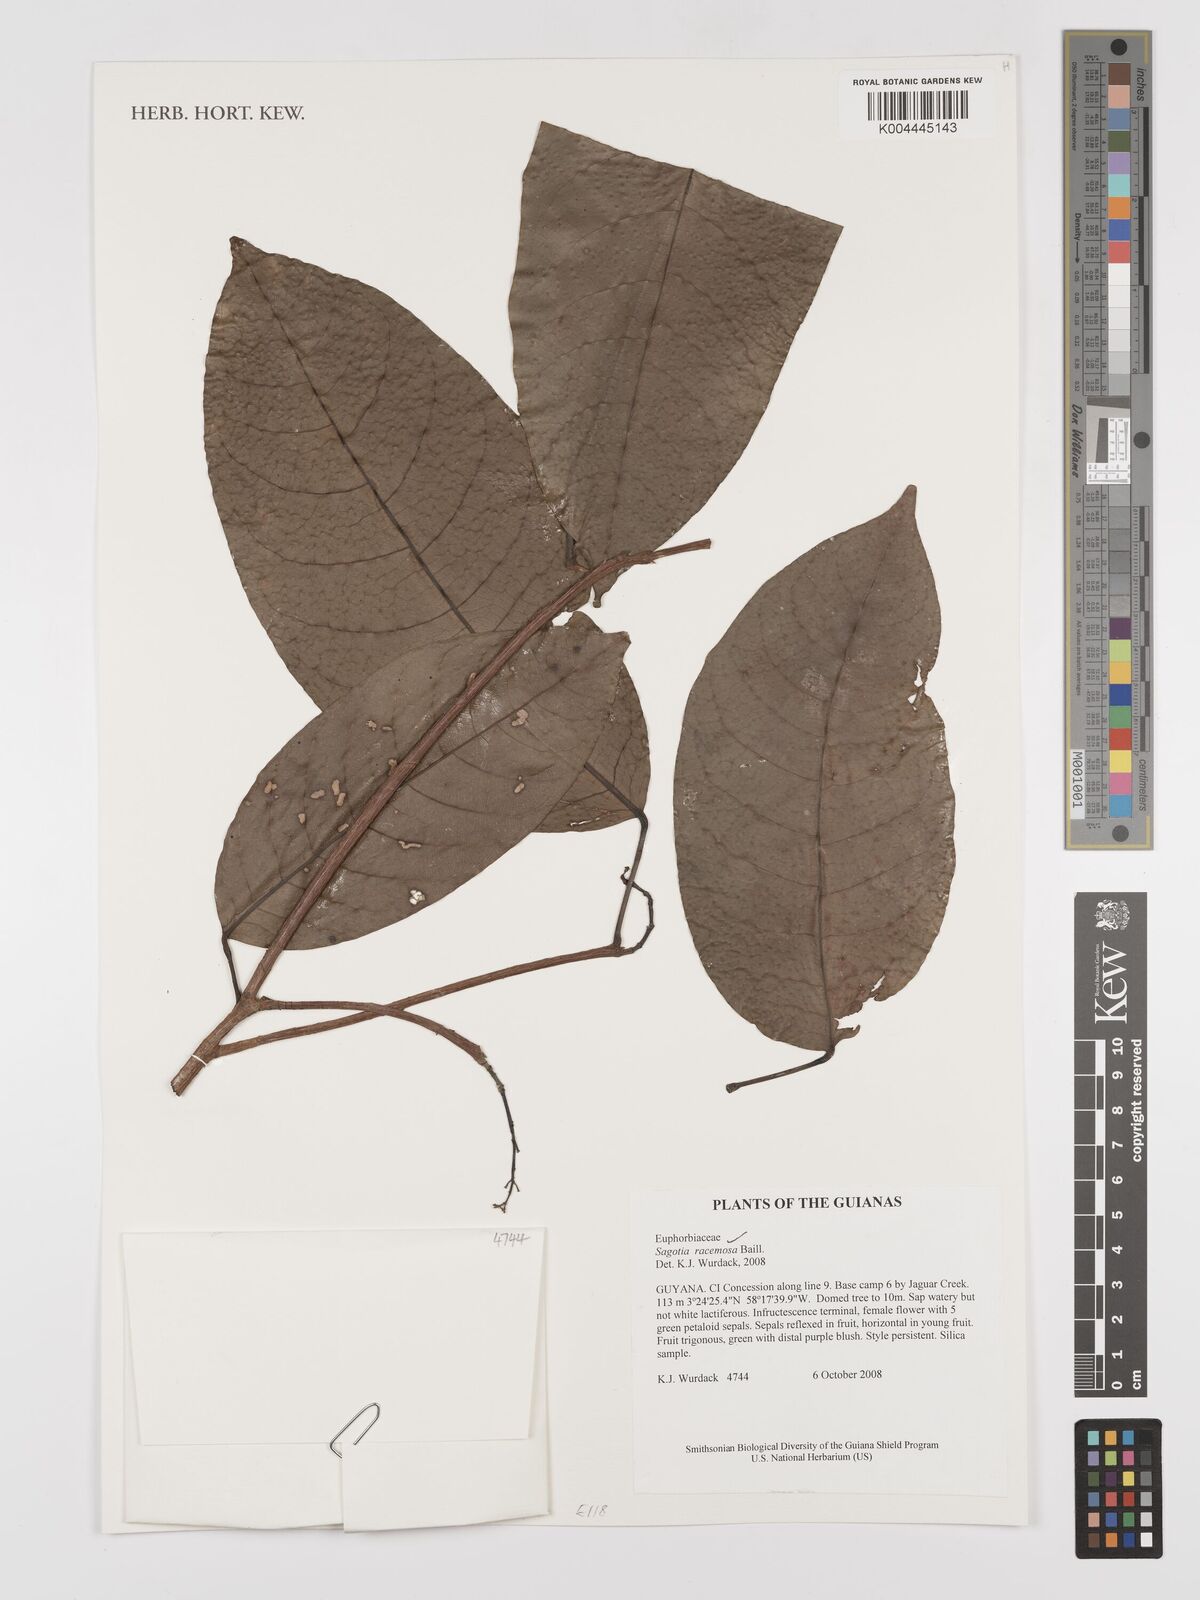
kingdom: Plantae
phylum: Tracheophyta
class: Magnoliopsida
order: Malpighiales
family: Euphorbiaceae
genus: Sagotia
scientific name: Sagotia racemosa
